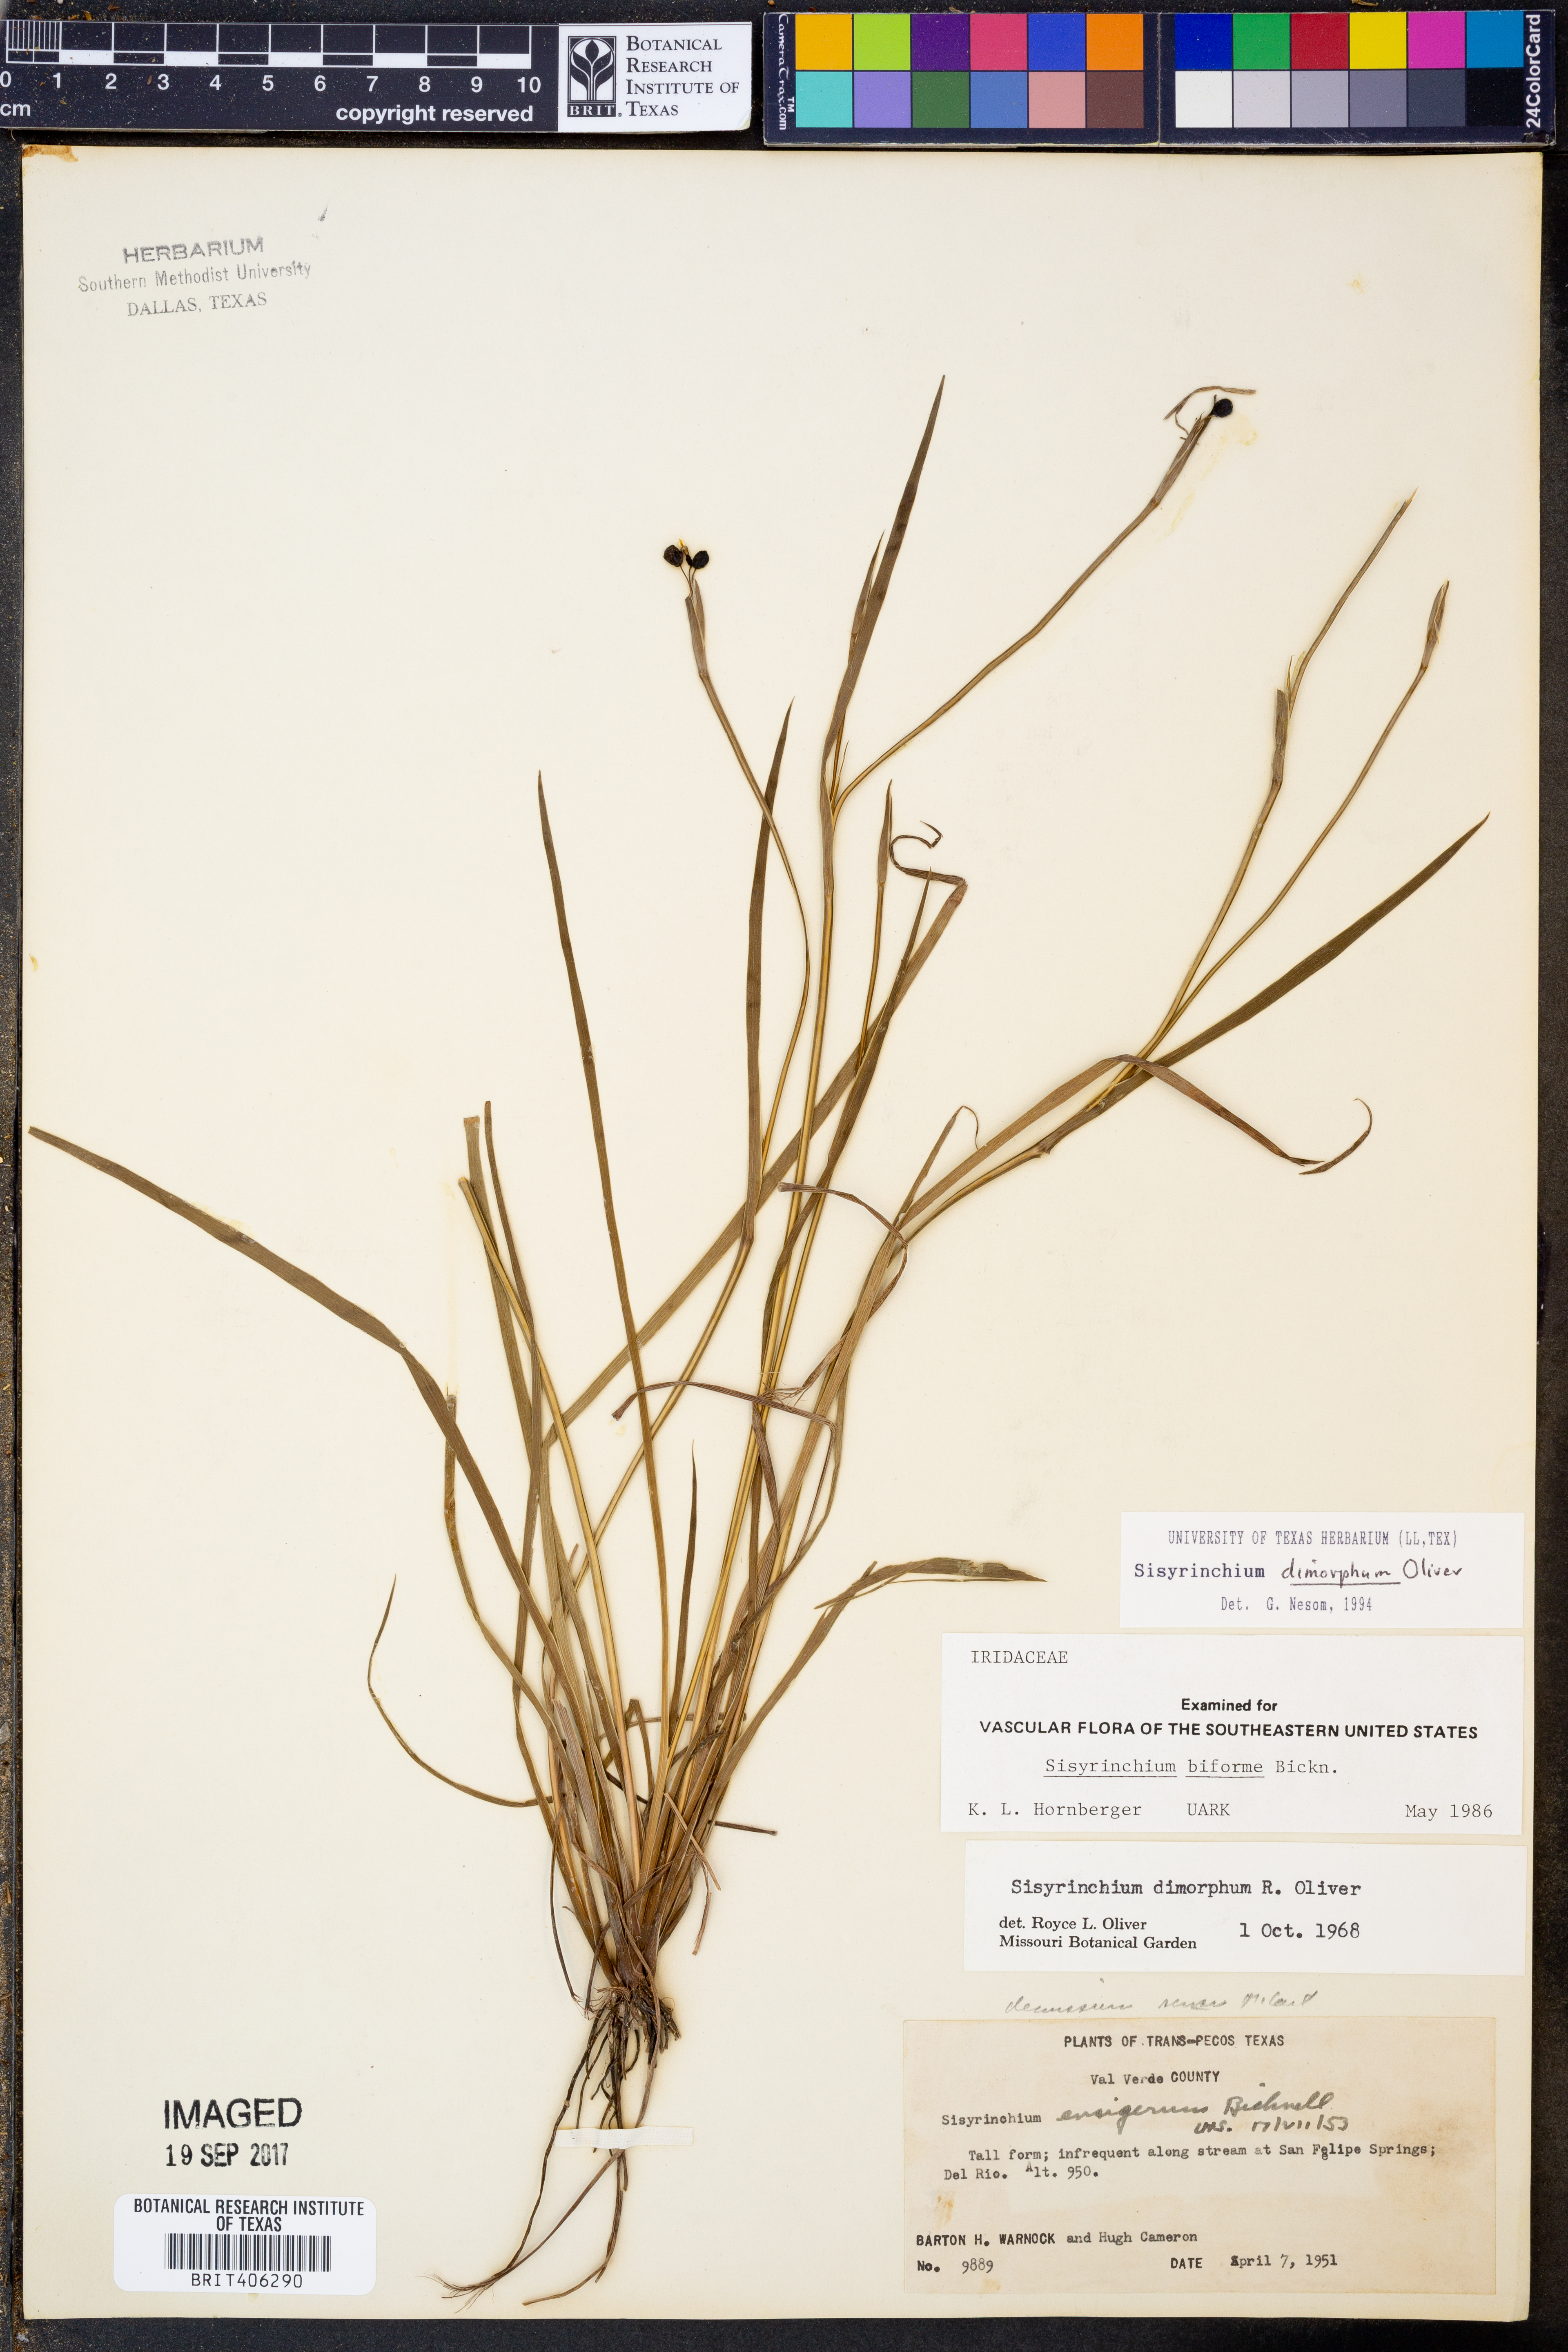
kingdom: Plantae
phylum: Tracheophyta
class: Liliopsida
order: Asparagales
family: Iridaceae
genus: Sisyrinchium
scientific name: Sisyrinchium dimorphum
